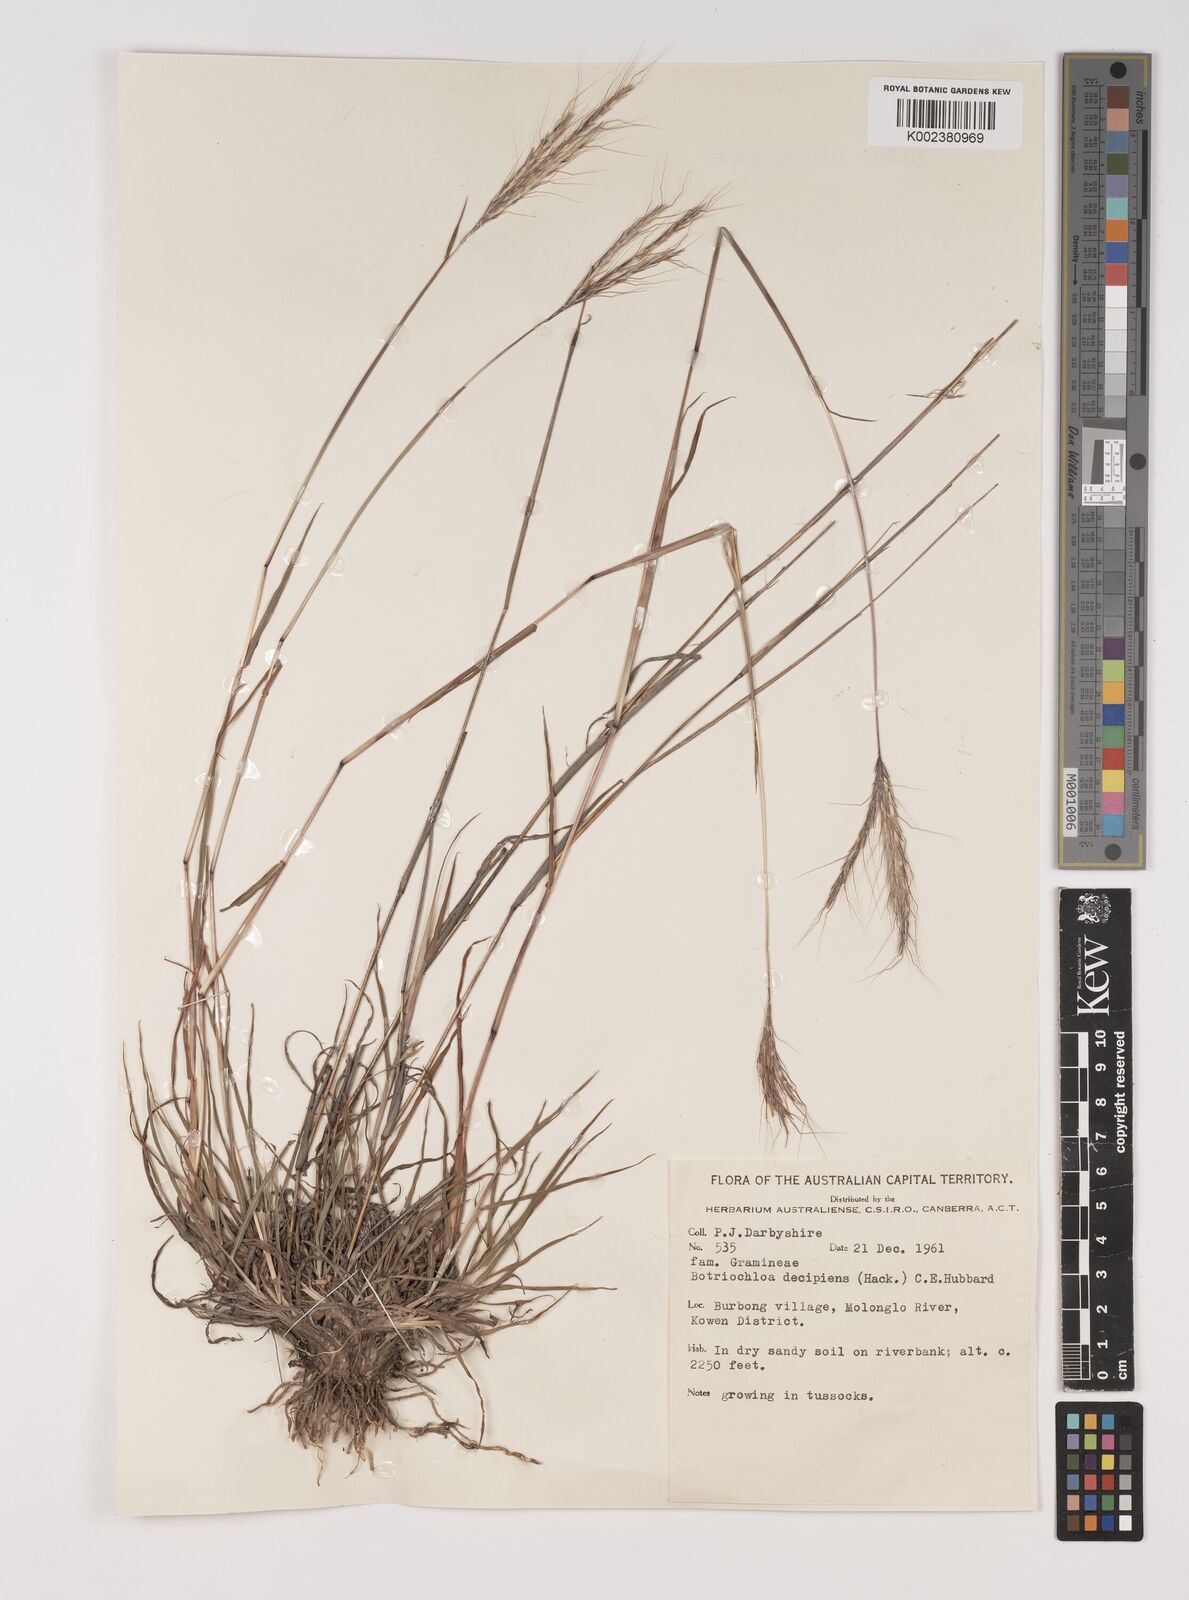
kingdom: Plantae
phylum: Tracheophyta
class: Liliopsida
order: Poales
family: Poaceae
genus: Bothriochloa
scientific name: Bothriochloa decipiens
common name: Pitted-bluegrass
